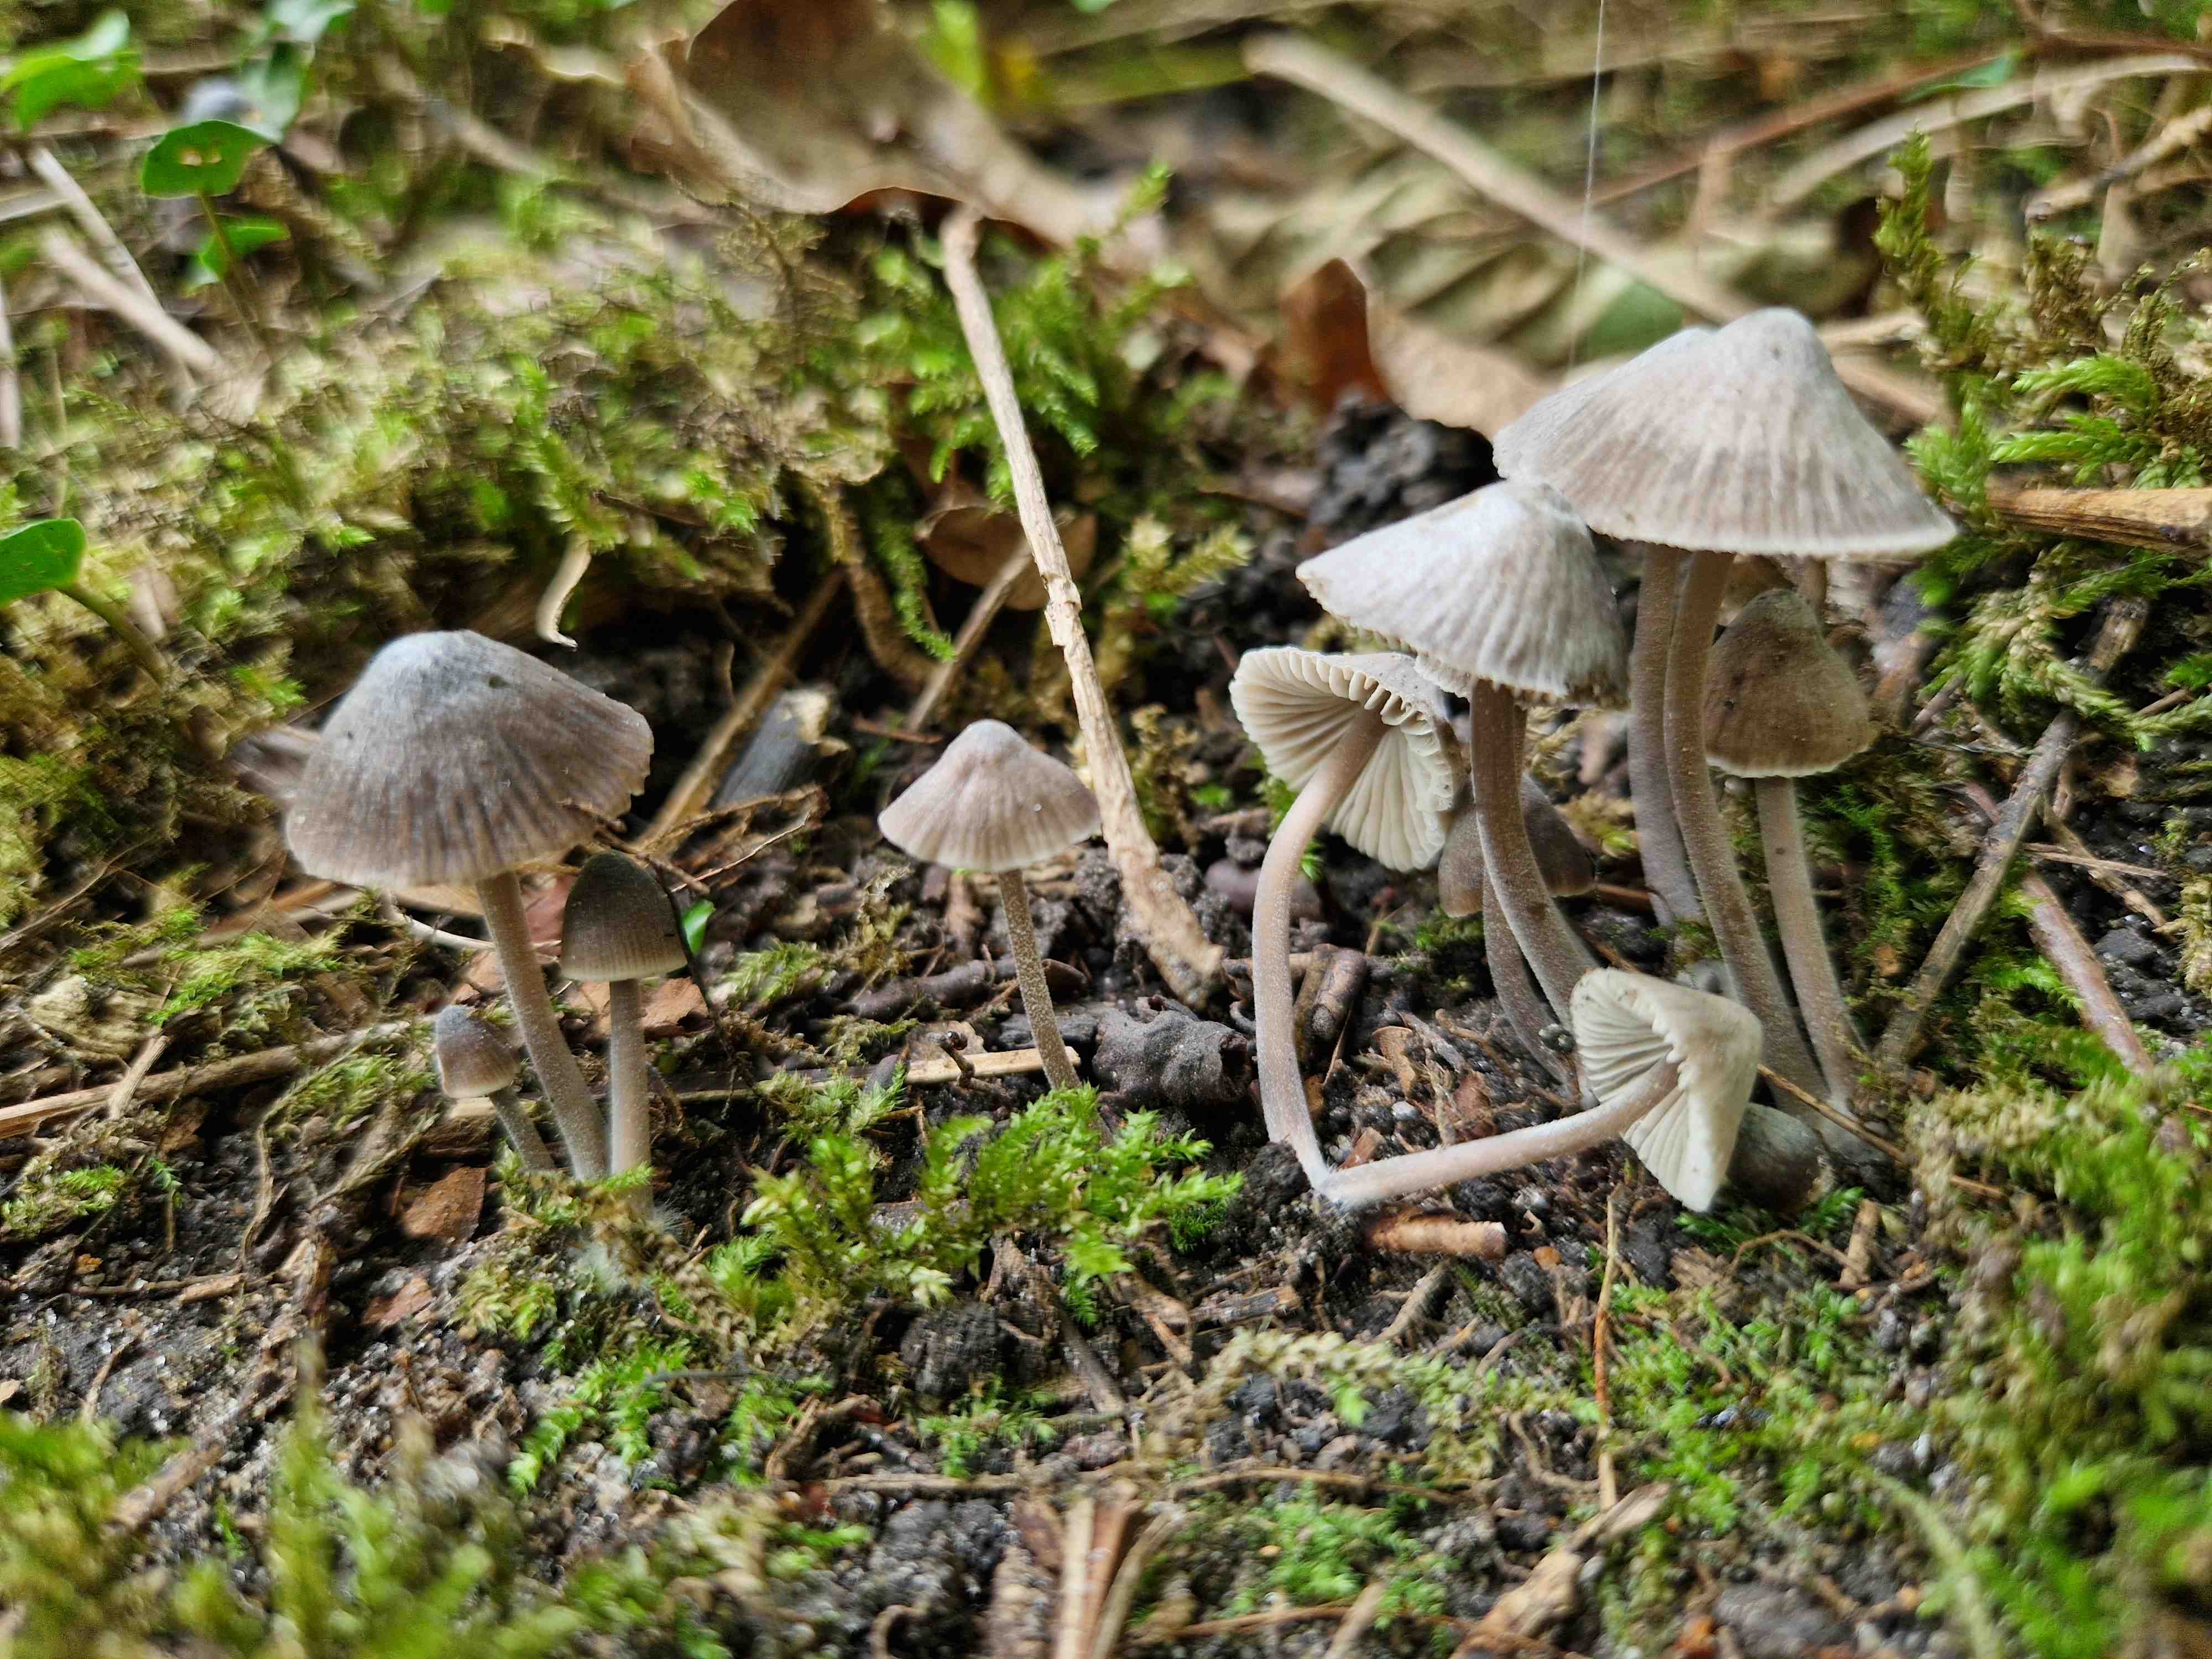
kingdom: Fungi
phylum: Basidiomycota
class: Agaricomycetes
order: Agaricales
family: Mycenaceae
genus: Mycena
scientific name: Mycena
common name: huesvamp
